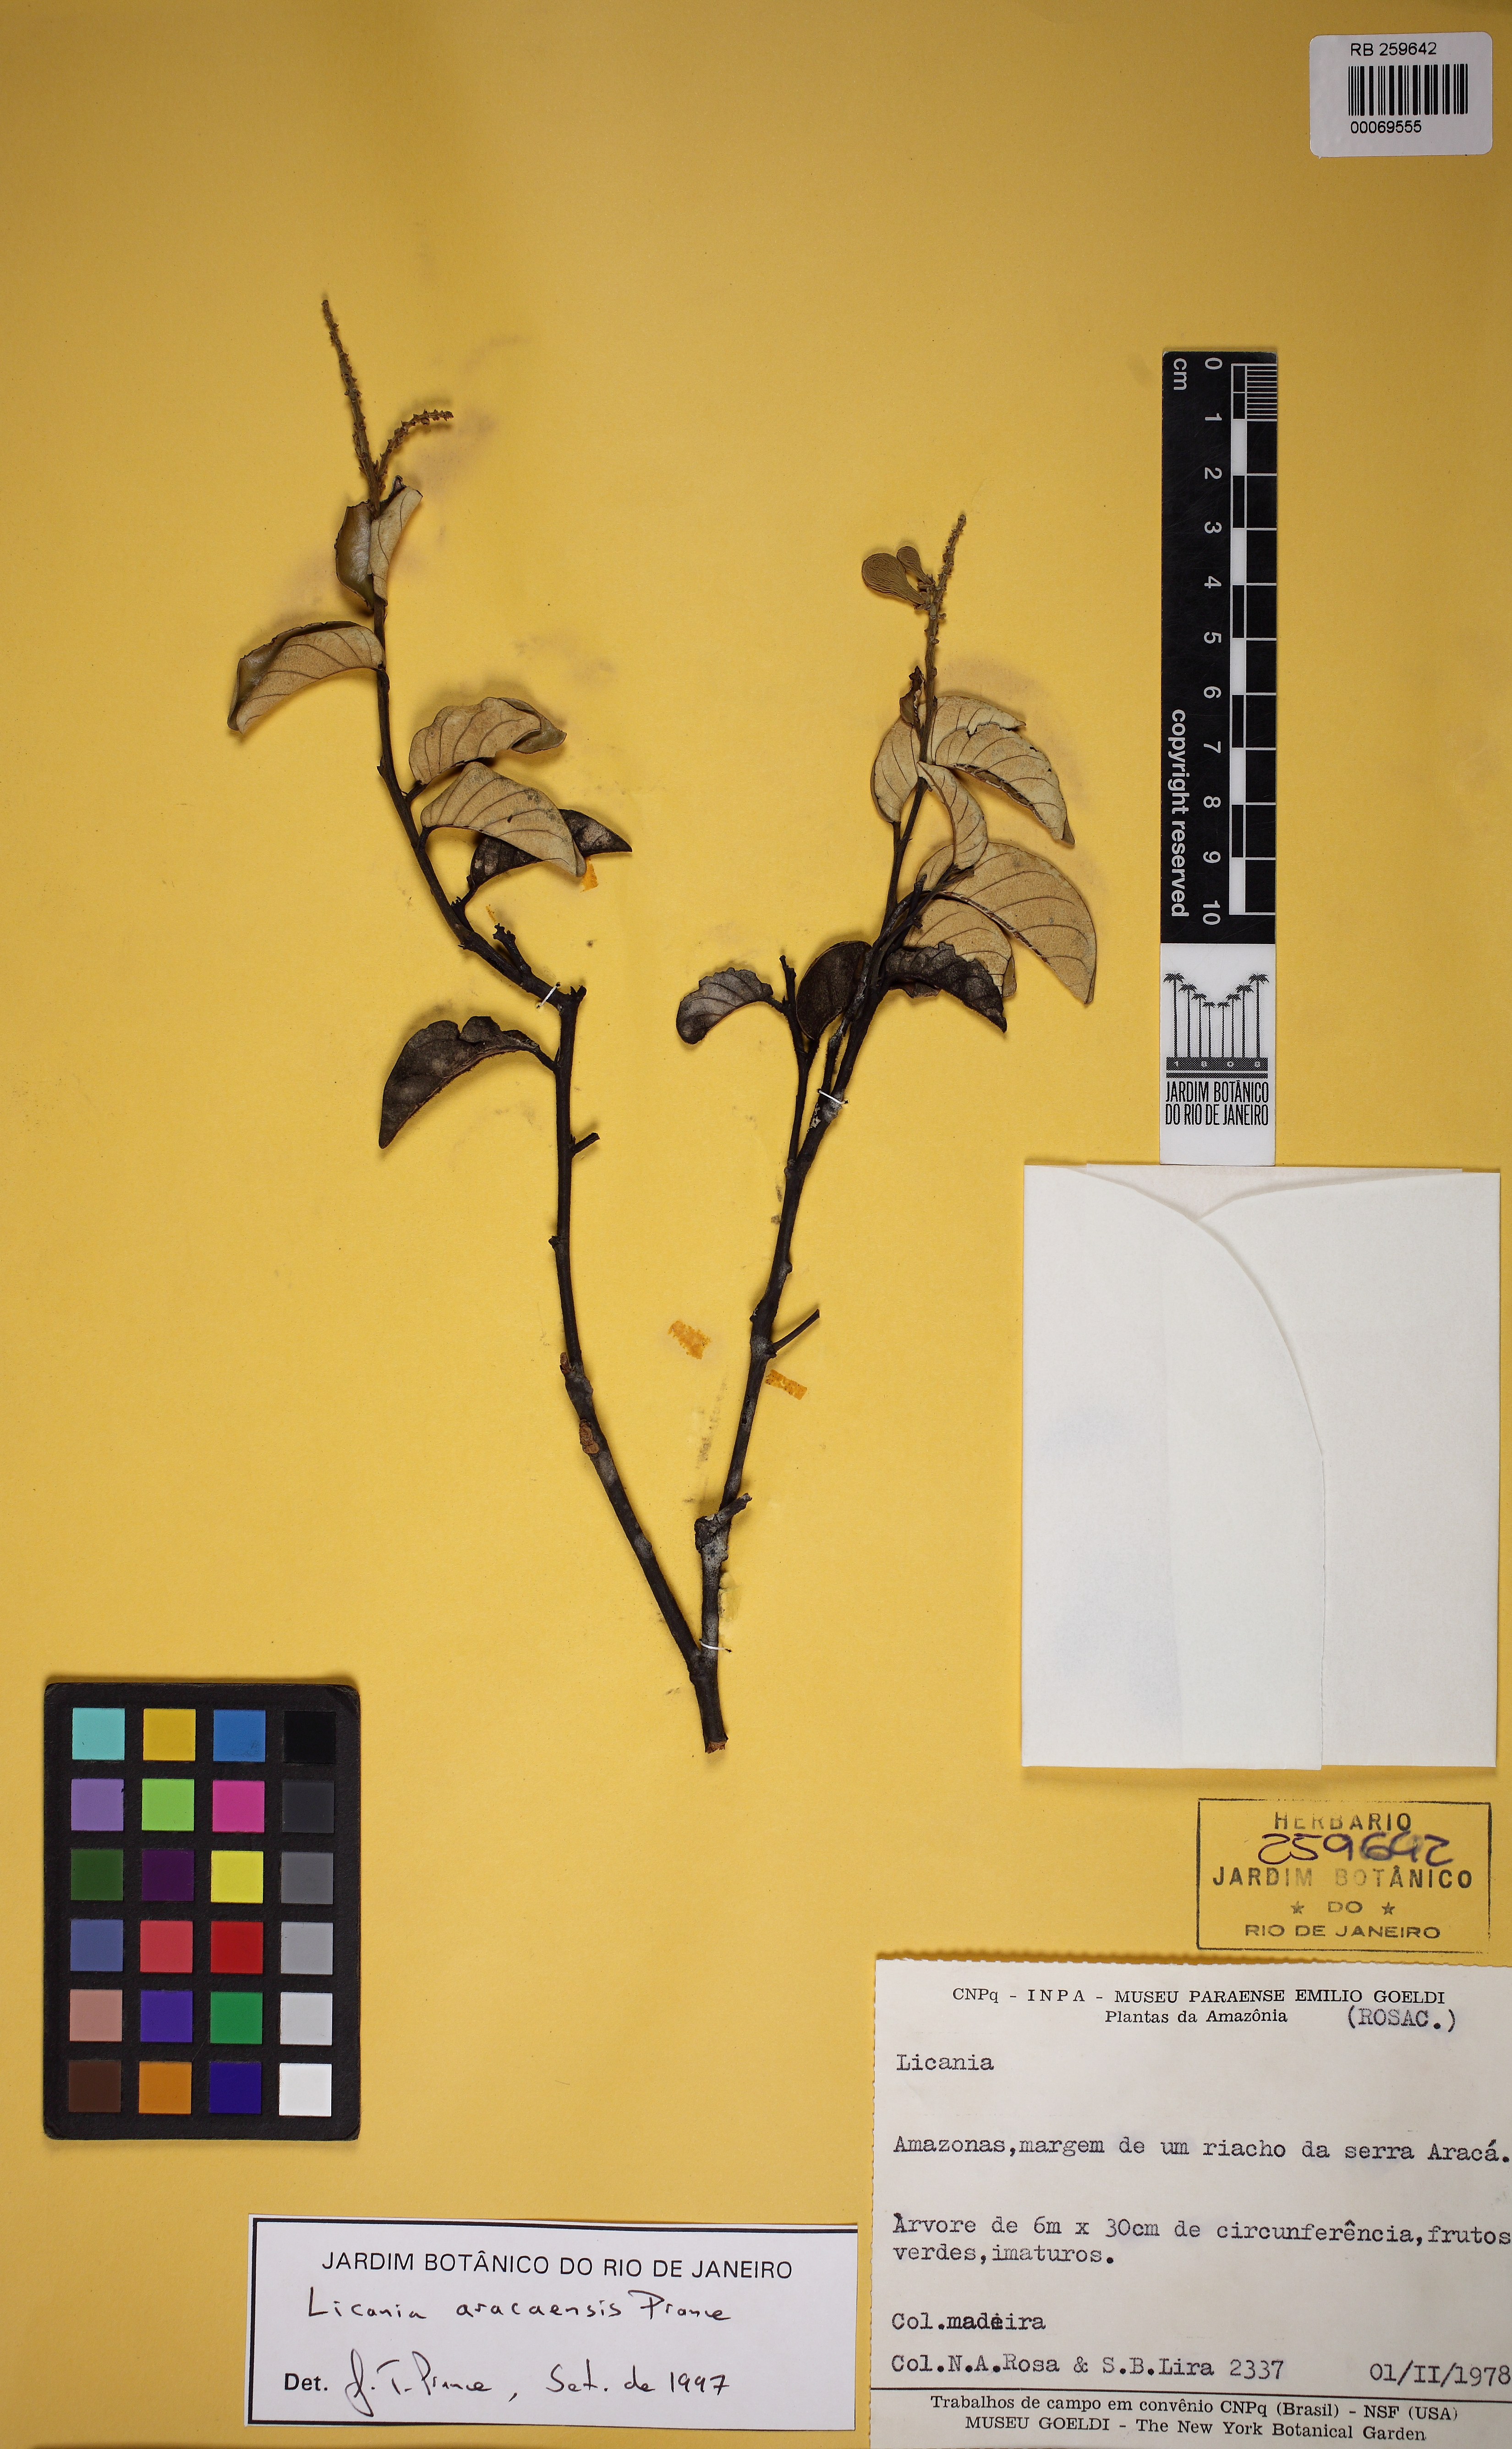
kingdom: Plantae
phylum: Tracheophyta
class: Magnoliopsida
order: Malpighiales
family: Chrysobalanaceae
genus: Licania
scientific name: Licania aracaensis
